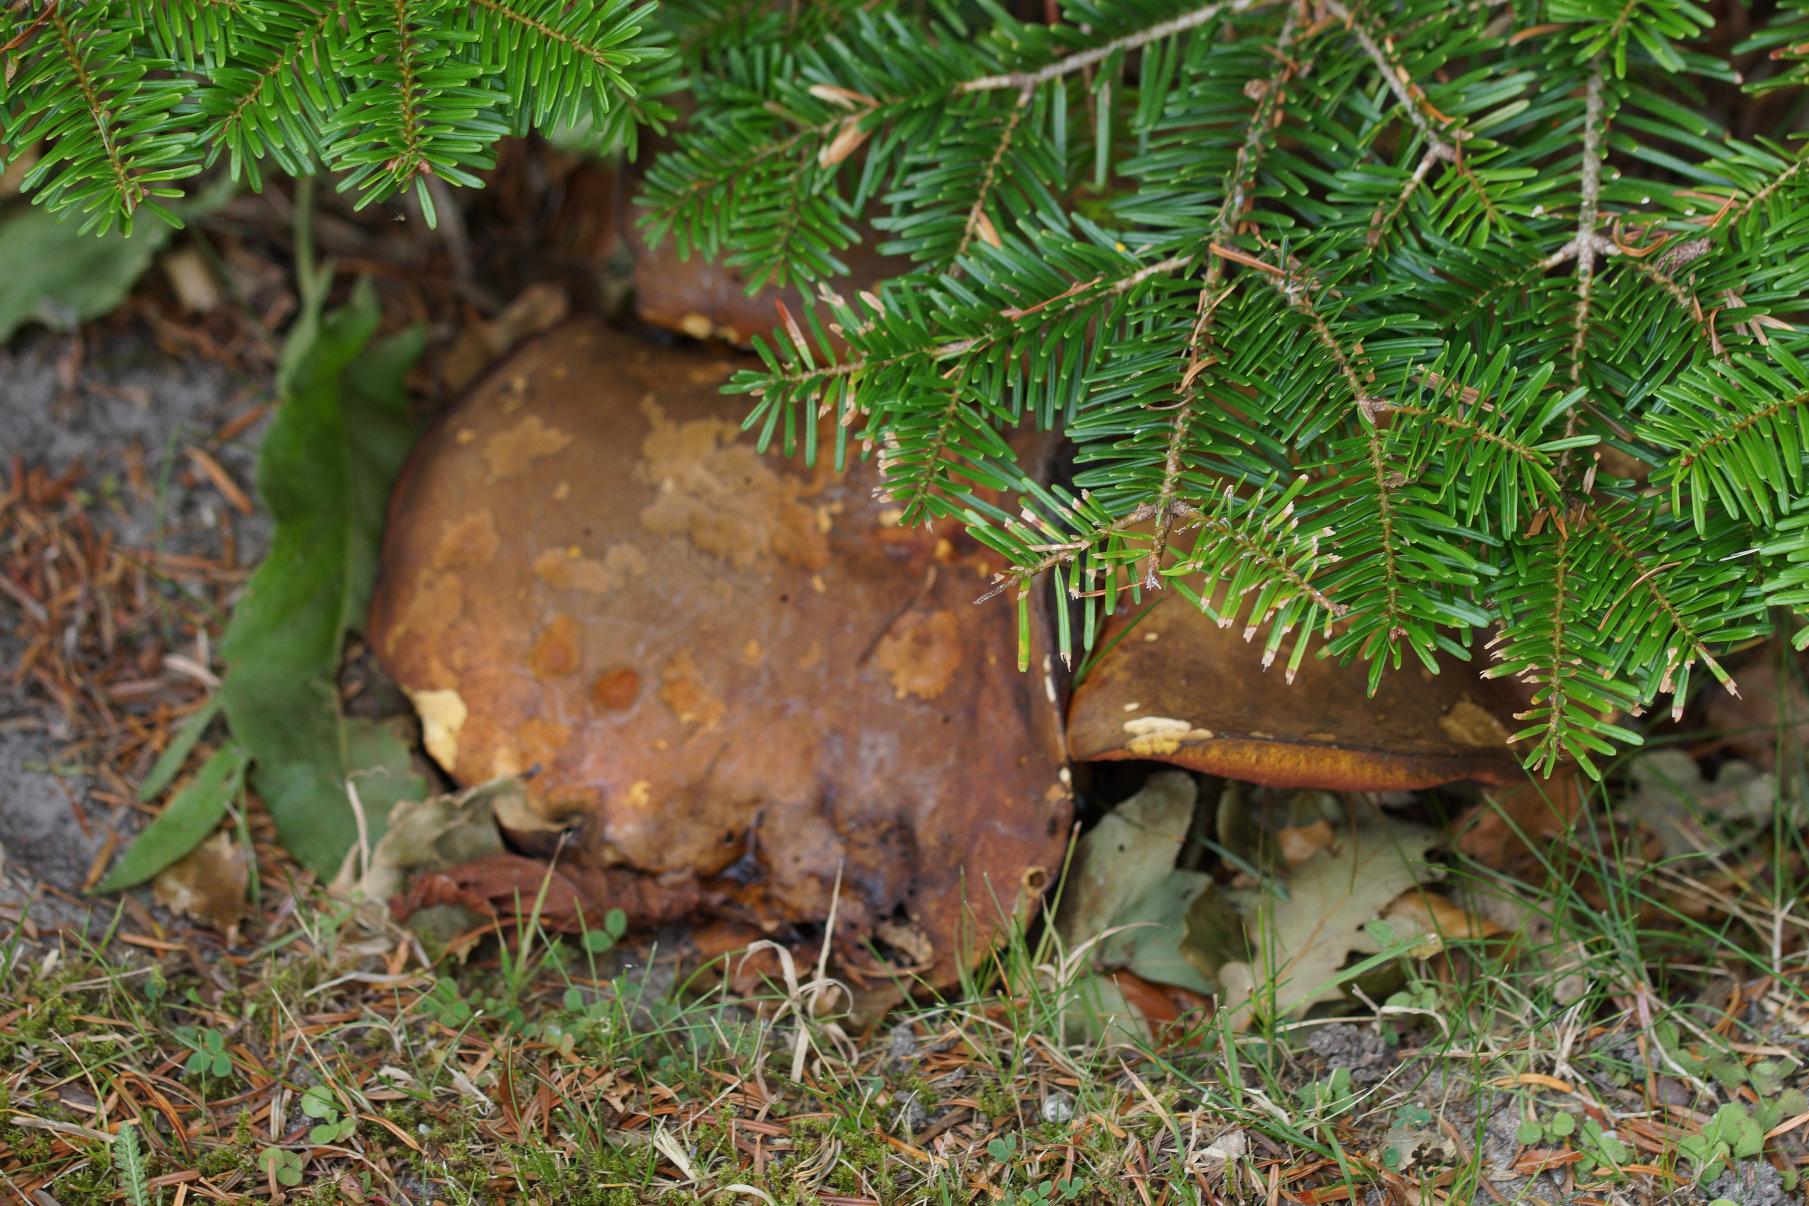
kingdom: Fungi
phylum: Basidiomycota
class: Agaricomycetes
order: Boletales
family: Boletaceae
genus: Neoboletus
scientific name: Neoboletus luridiformis
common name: Punktstokket indigorørhat
